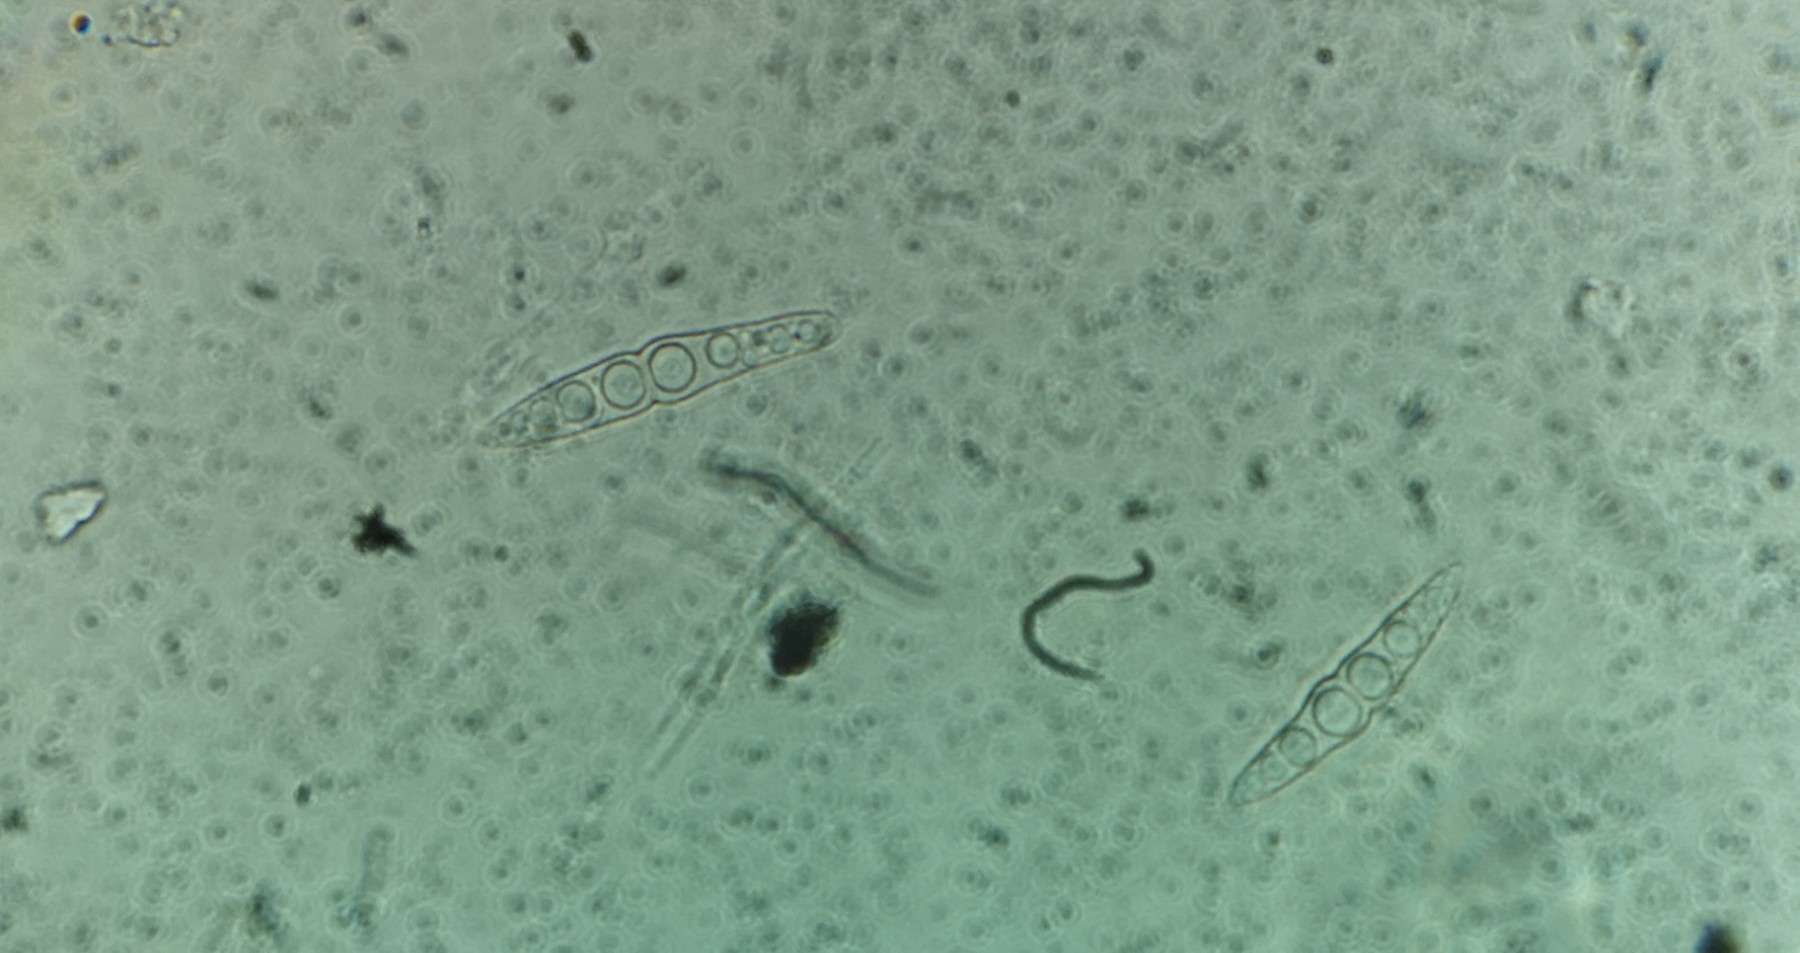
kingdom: Fungi
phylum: Ascomycota
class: Dothideomycetes
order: Pleosporales
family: Lophiostomataceae
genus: Lophiostoma
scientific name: Lophiostoma
